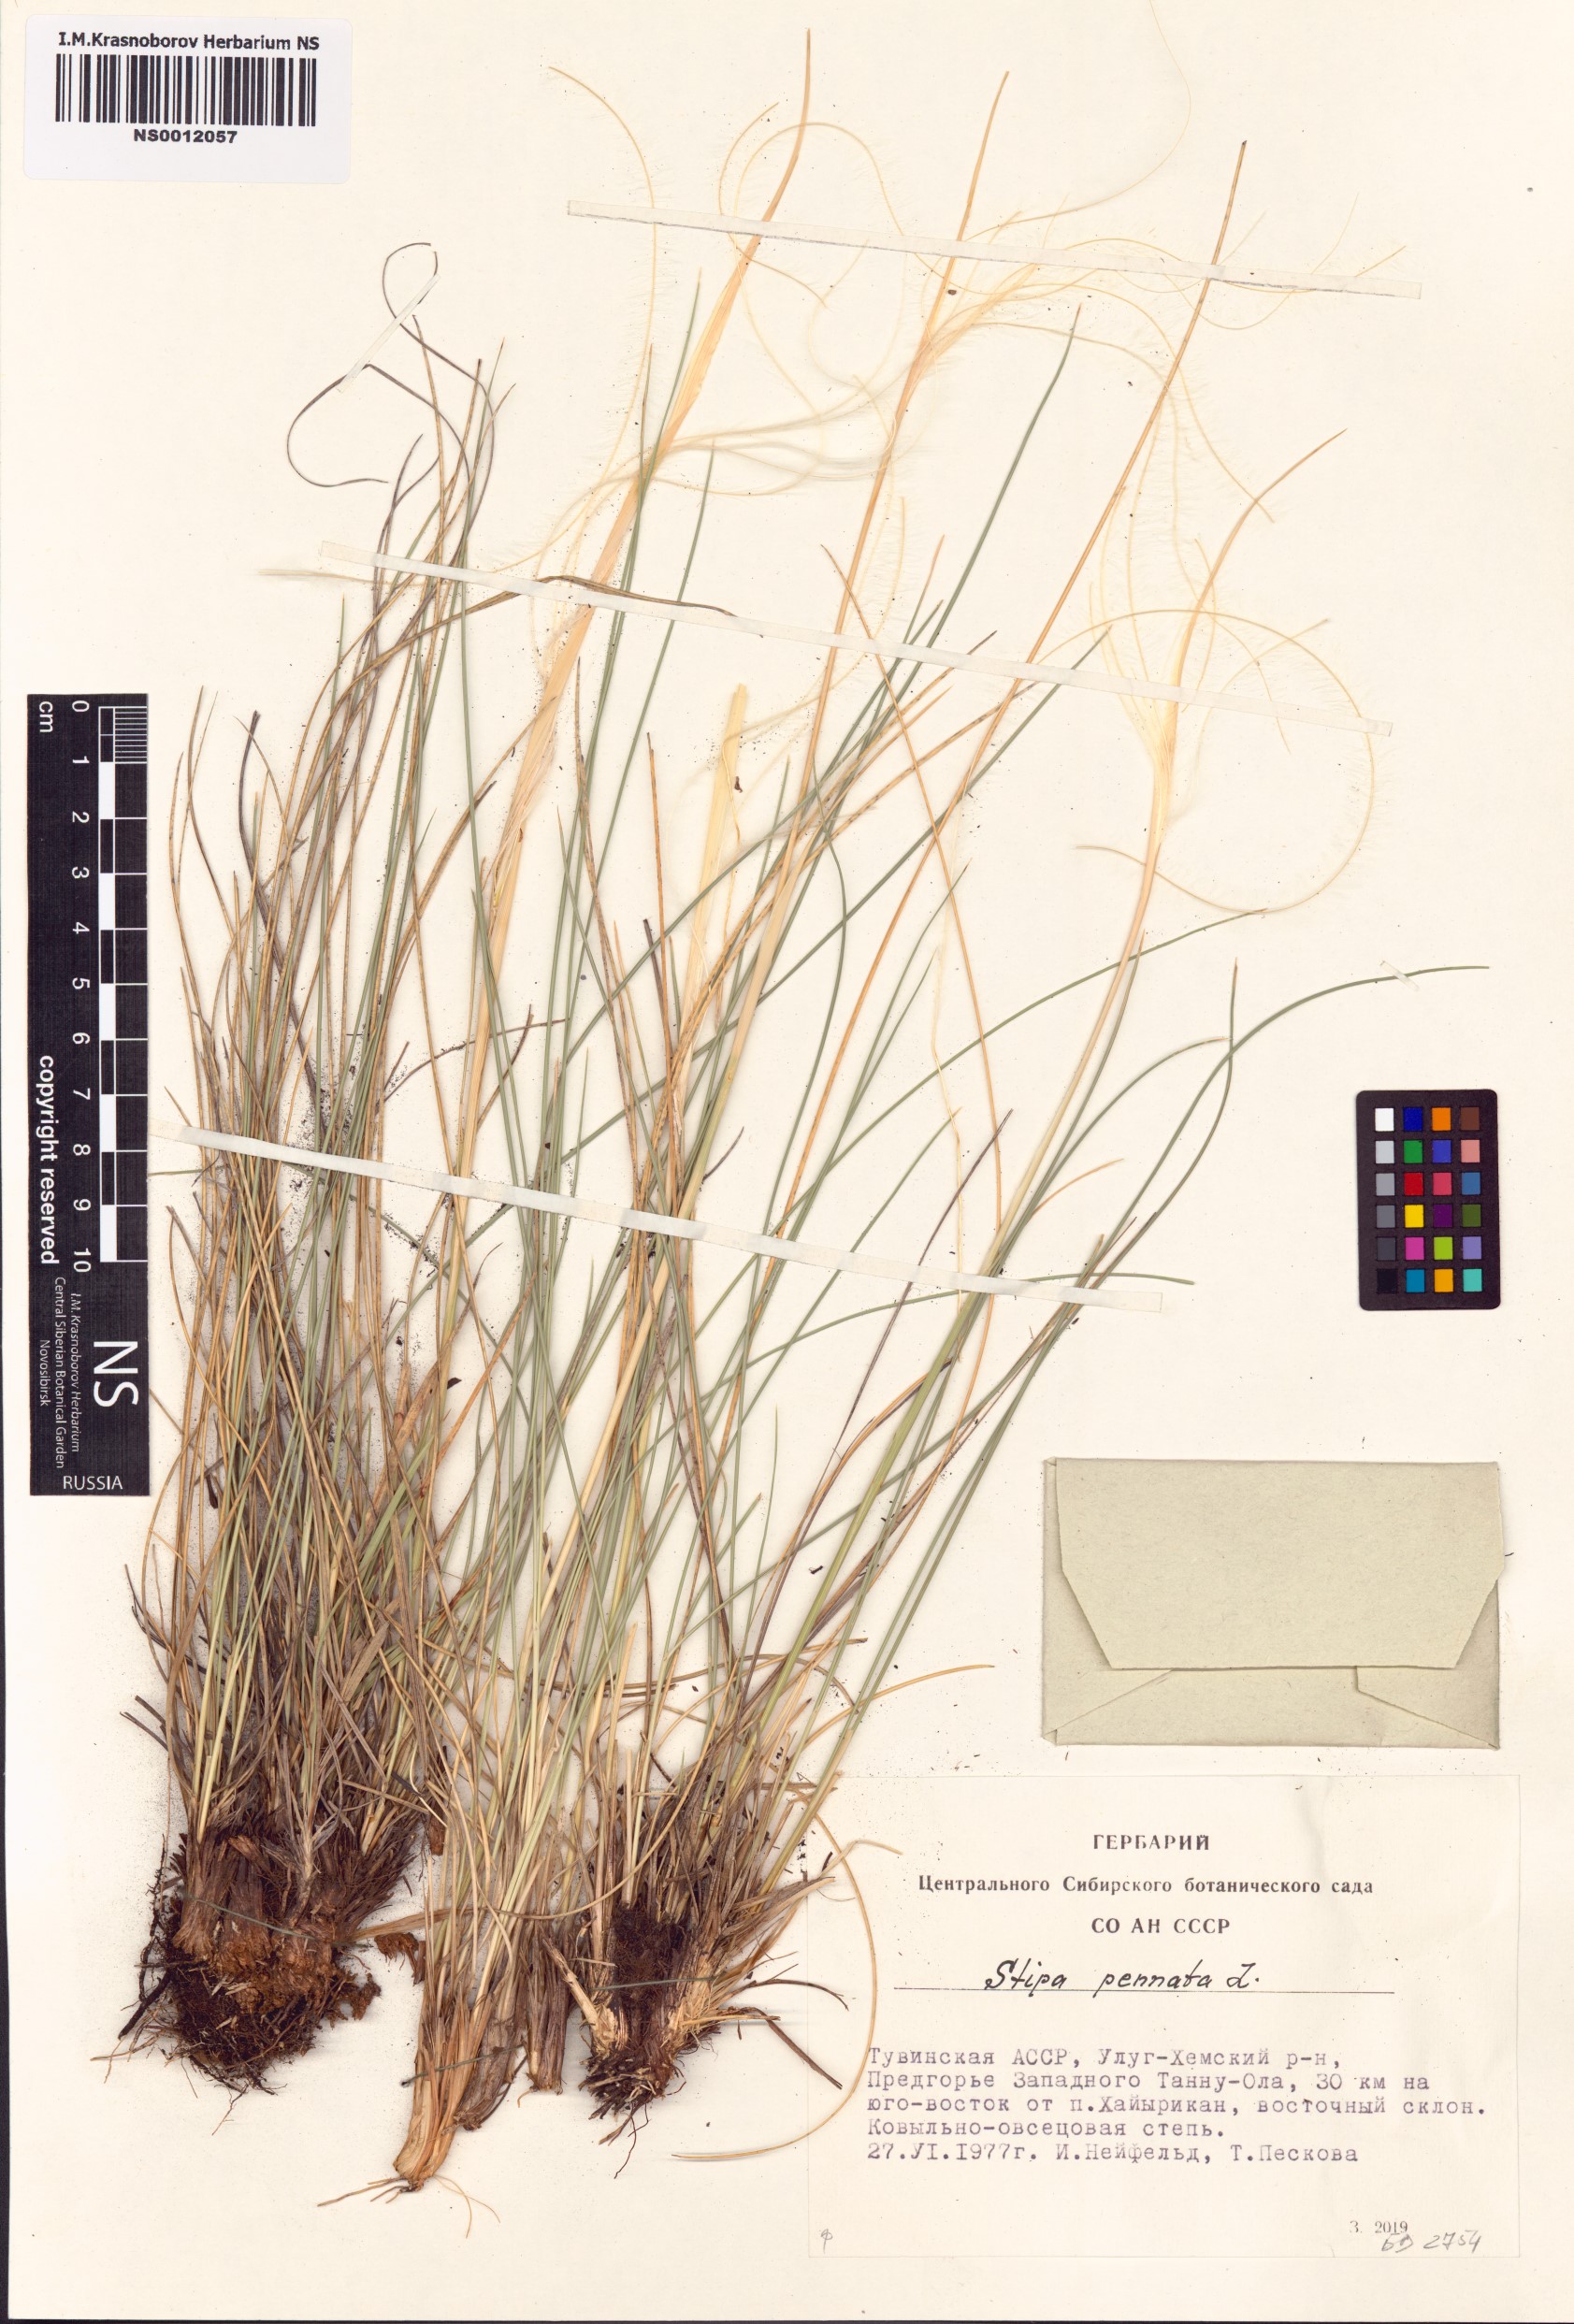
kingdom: Plantae
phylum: Tracheophyta
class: Liliopsida
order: Poales
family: Poaceae
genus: Stipa
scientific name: Stipa pennata
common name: European feather grass
